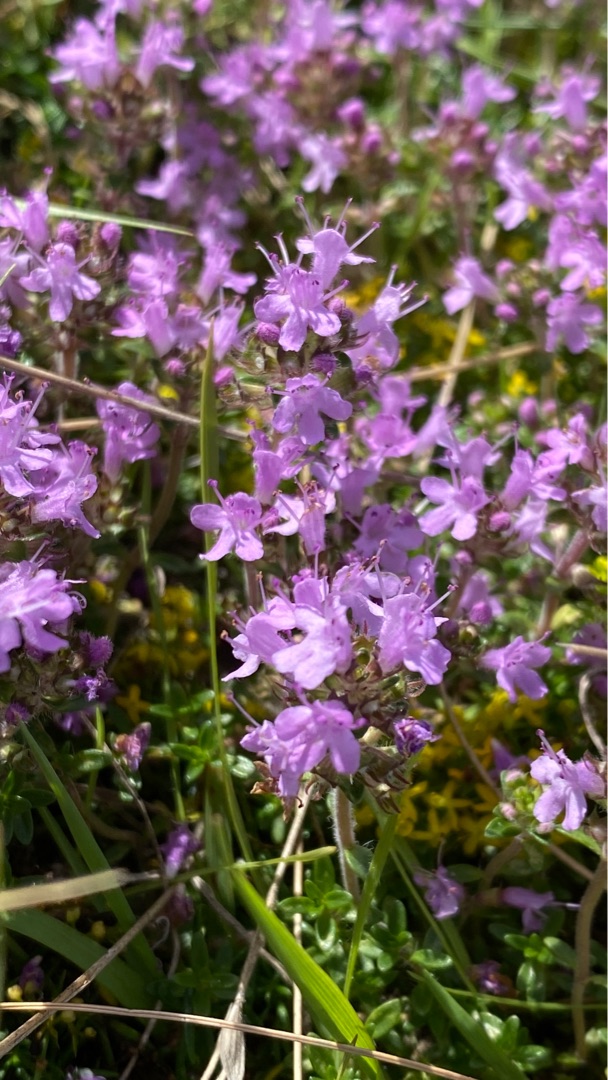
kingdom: Plantae
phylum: Tracheophyta
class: Magnoliopsida
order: Lamiales
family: Lamiaceae
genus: Thymus
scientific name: Thymus serpyllum
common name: Smalbladet timian
